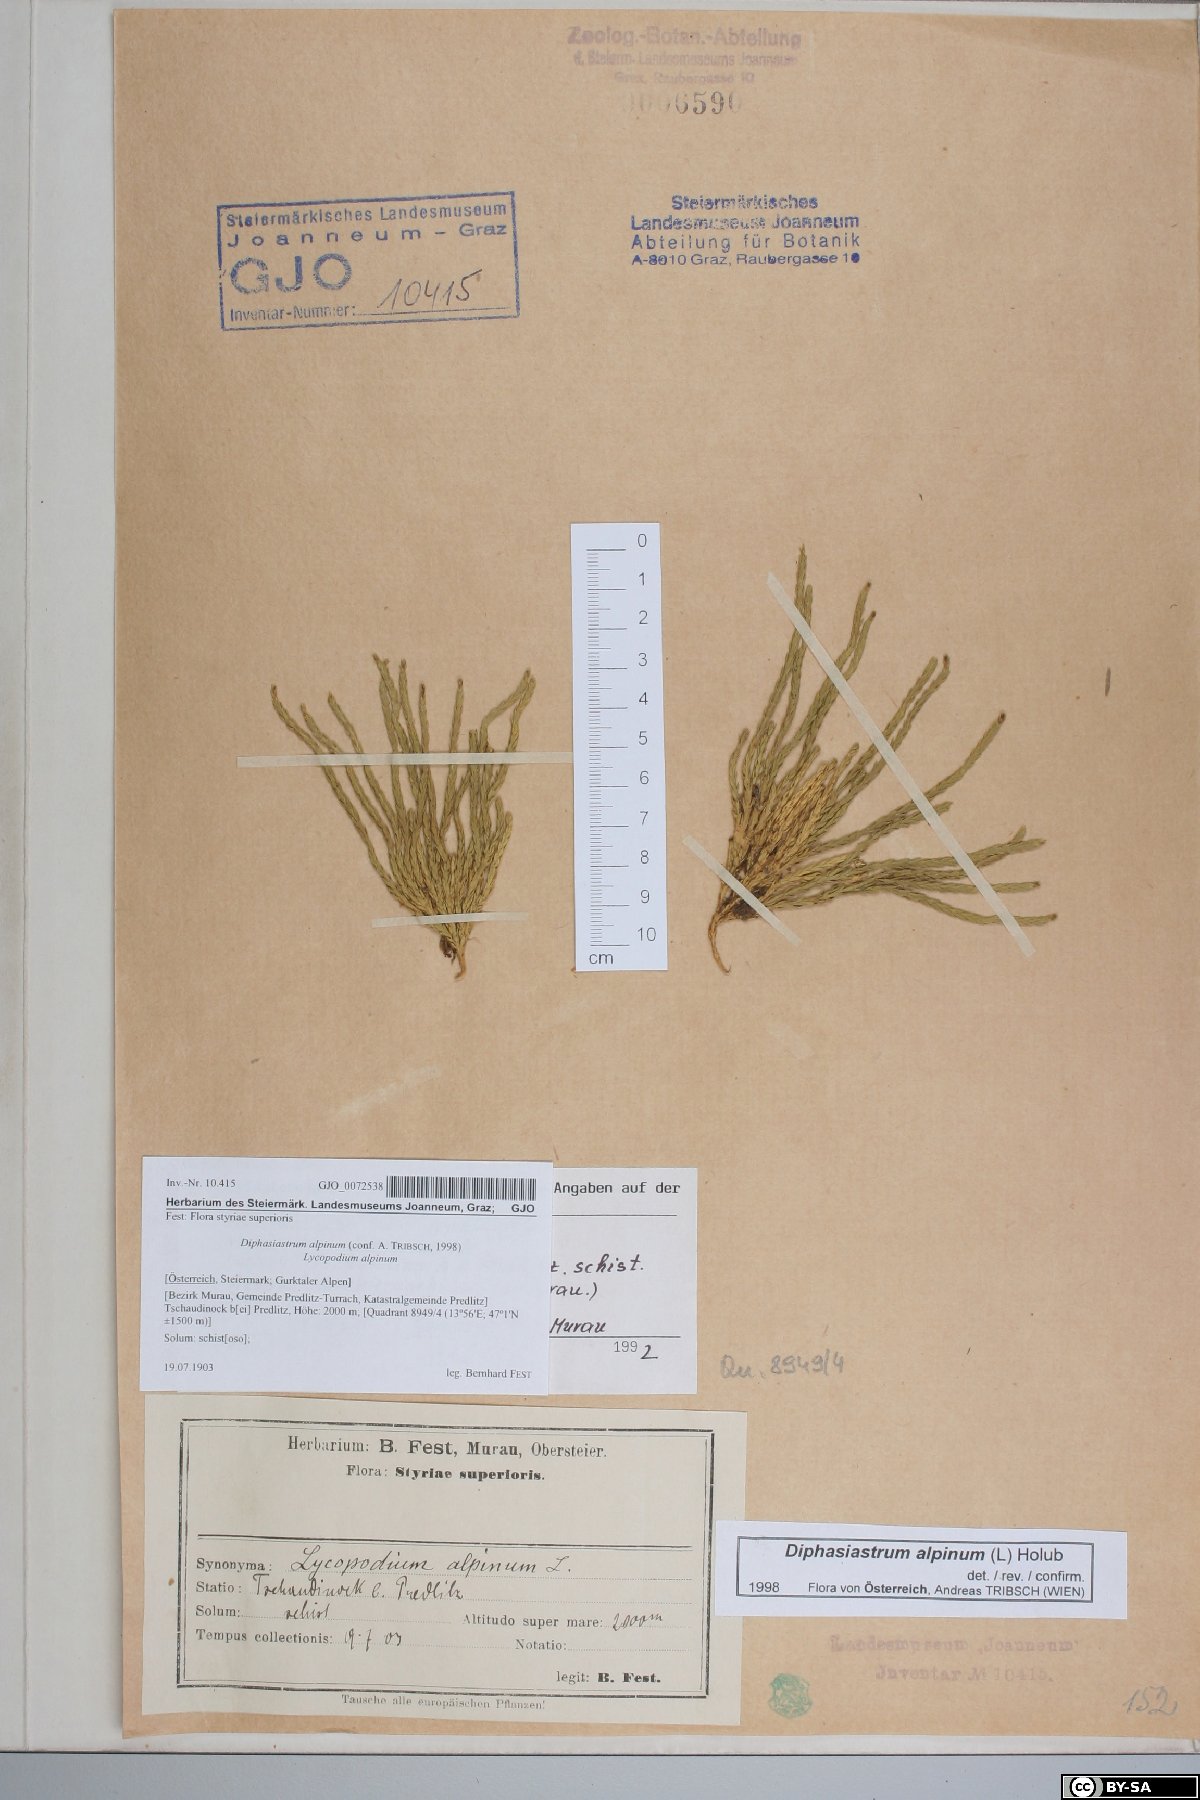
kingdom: Plantae
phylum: Tracheophyta
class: Lycopodiopsida
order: Lycopodiales
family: Lycopodiaceae
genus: Diphasiastrum
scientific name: Diphasiastrum alpinum
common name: Alpine clubmoss
